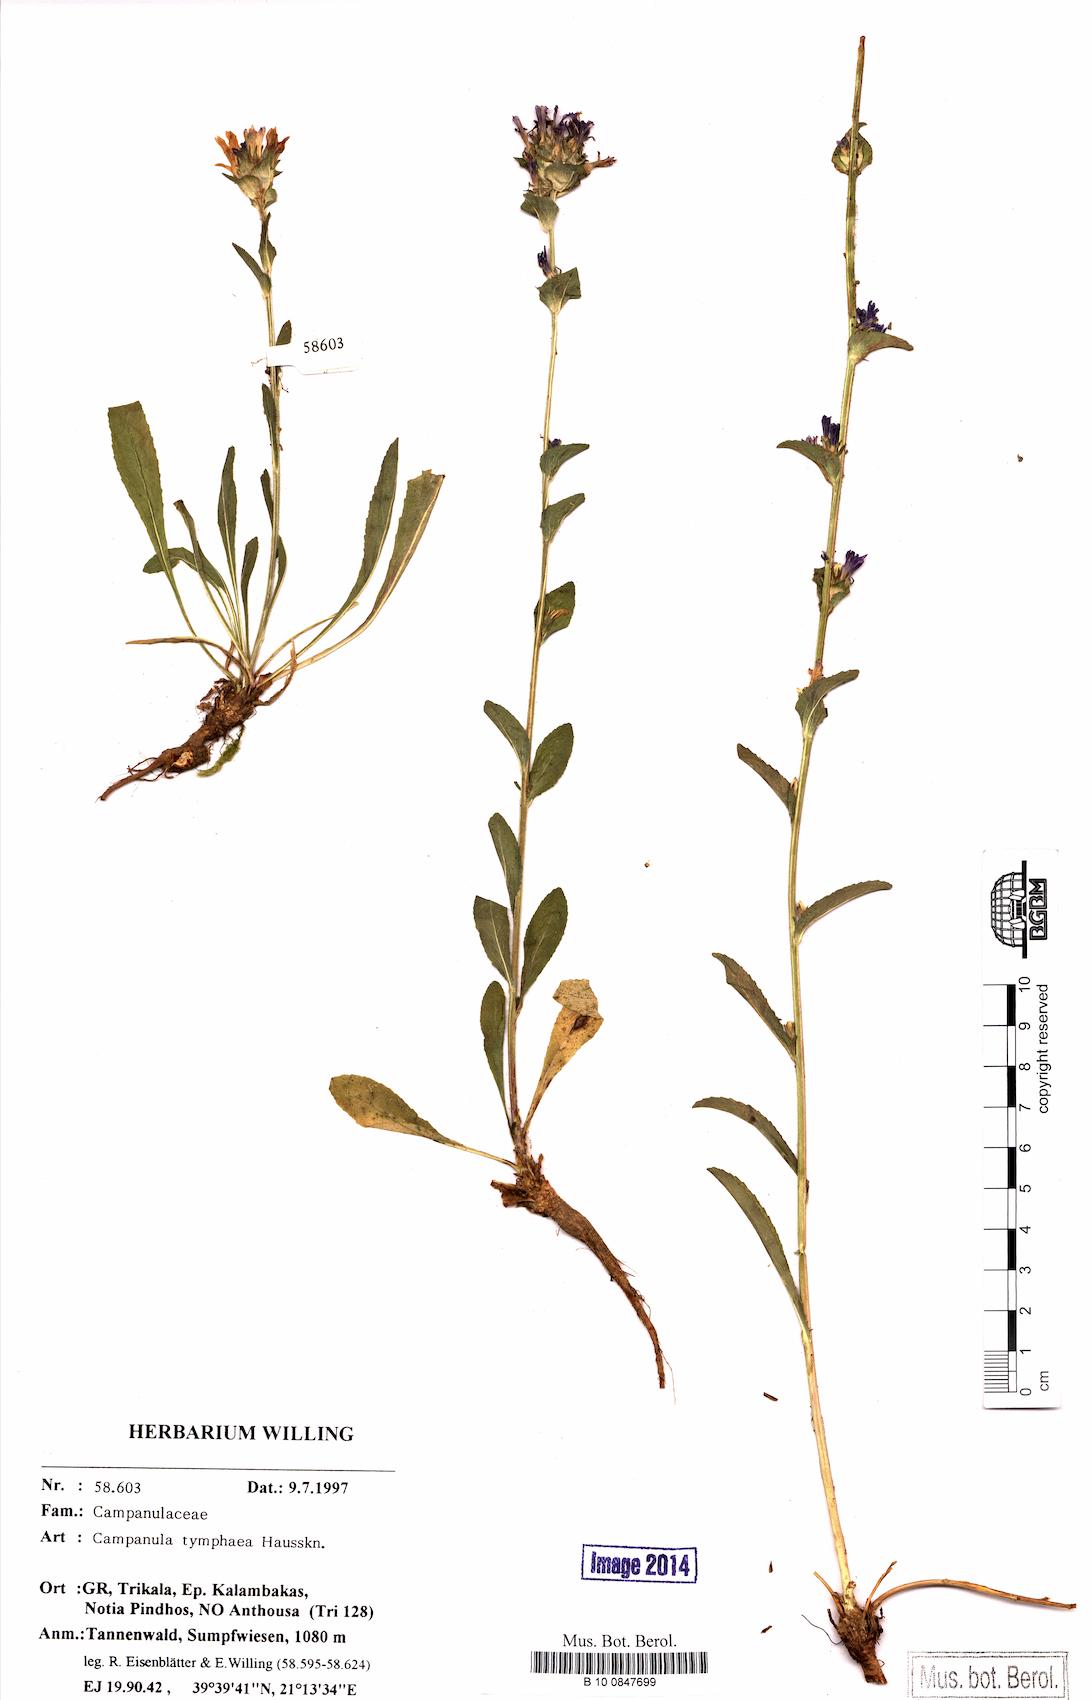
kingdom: Plantae
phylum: Tracheophyta
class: Magnoliopsida
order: Asterales
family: Campanulaceae
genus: Campanula
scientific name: Campanula tymphaea
